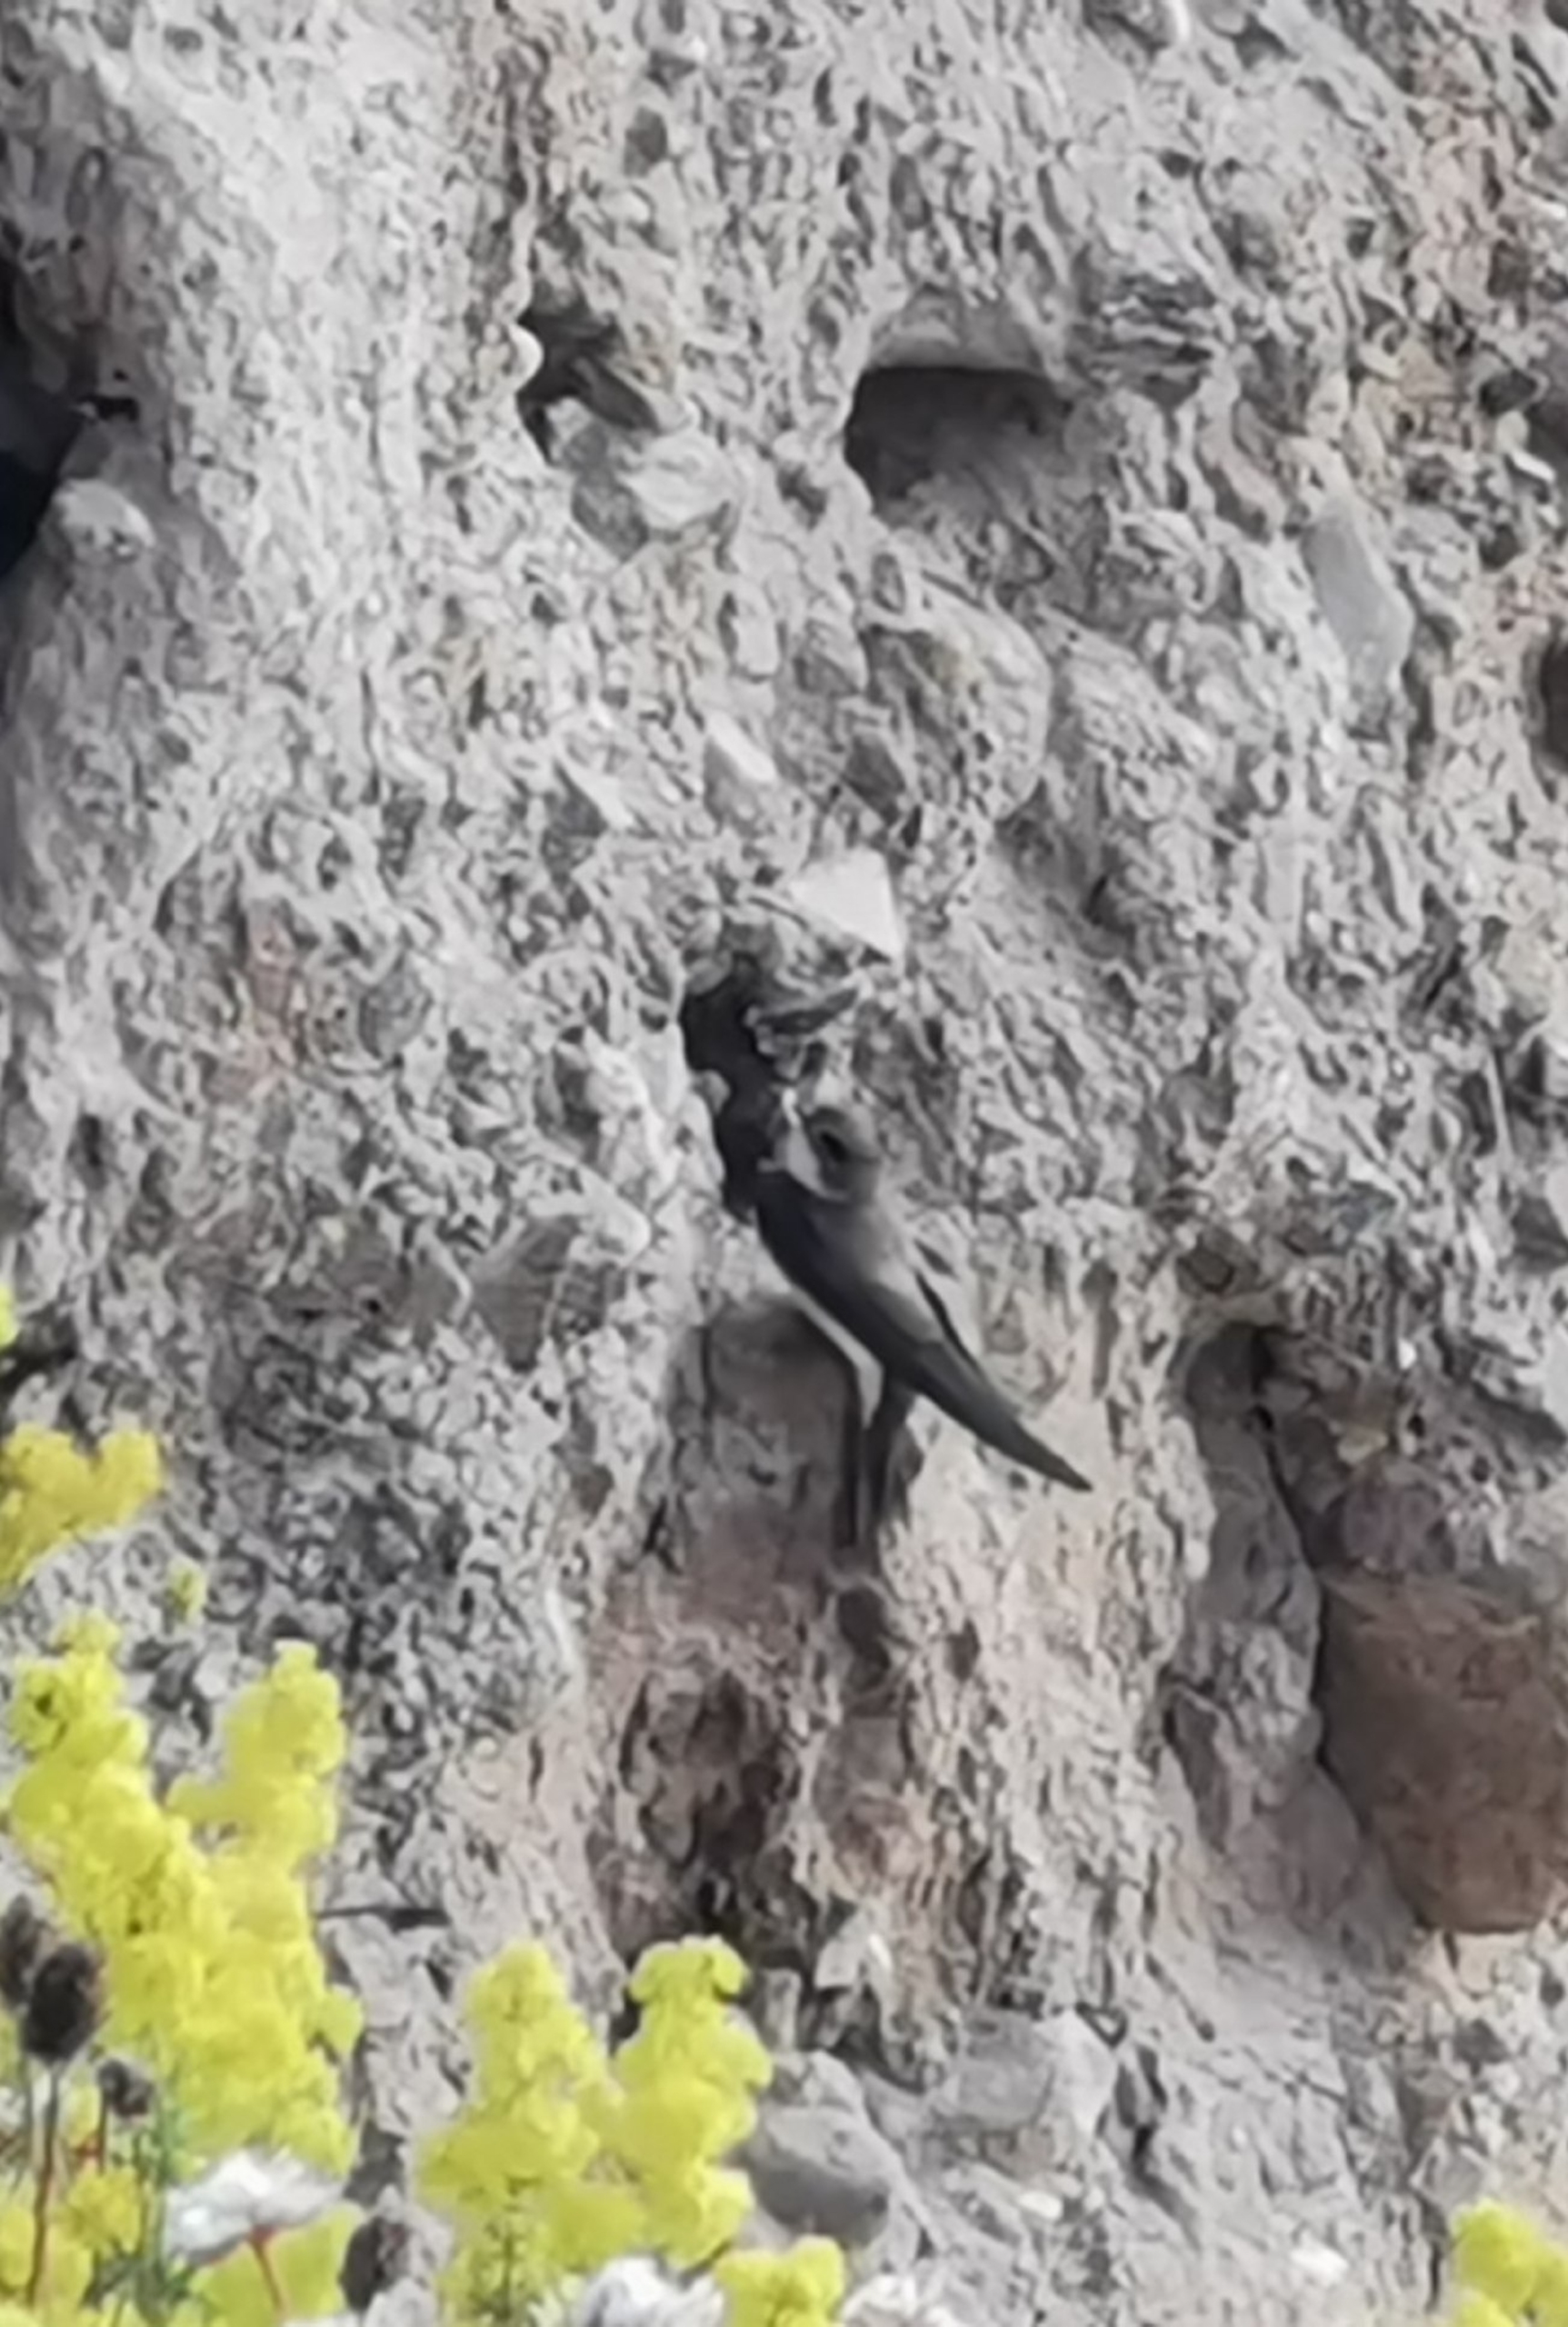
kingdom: Animalia
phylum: Chordata
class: Aves
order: Passeriformes
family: Hirundinidae
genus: Riparia
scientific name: Riparia riparia
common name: Digesvale
